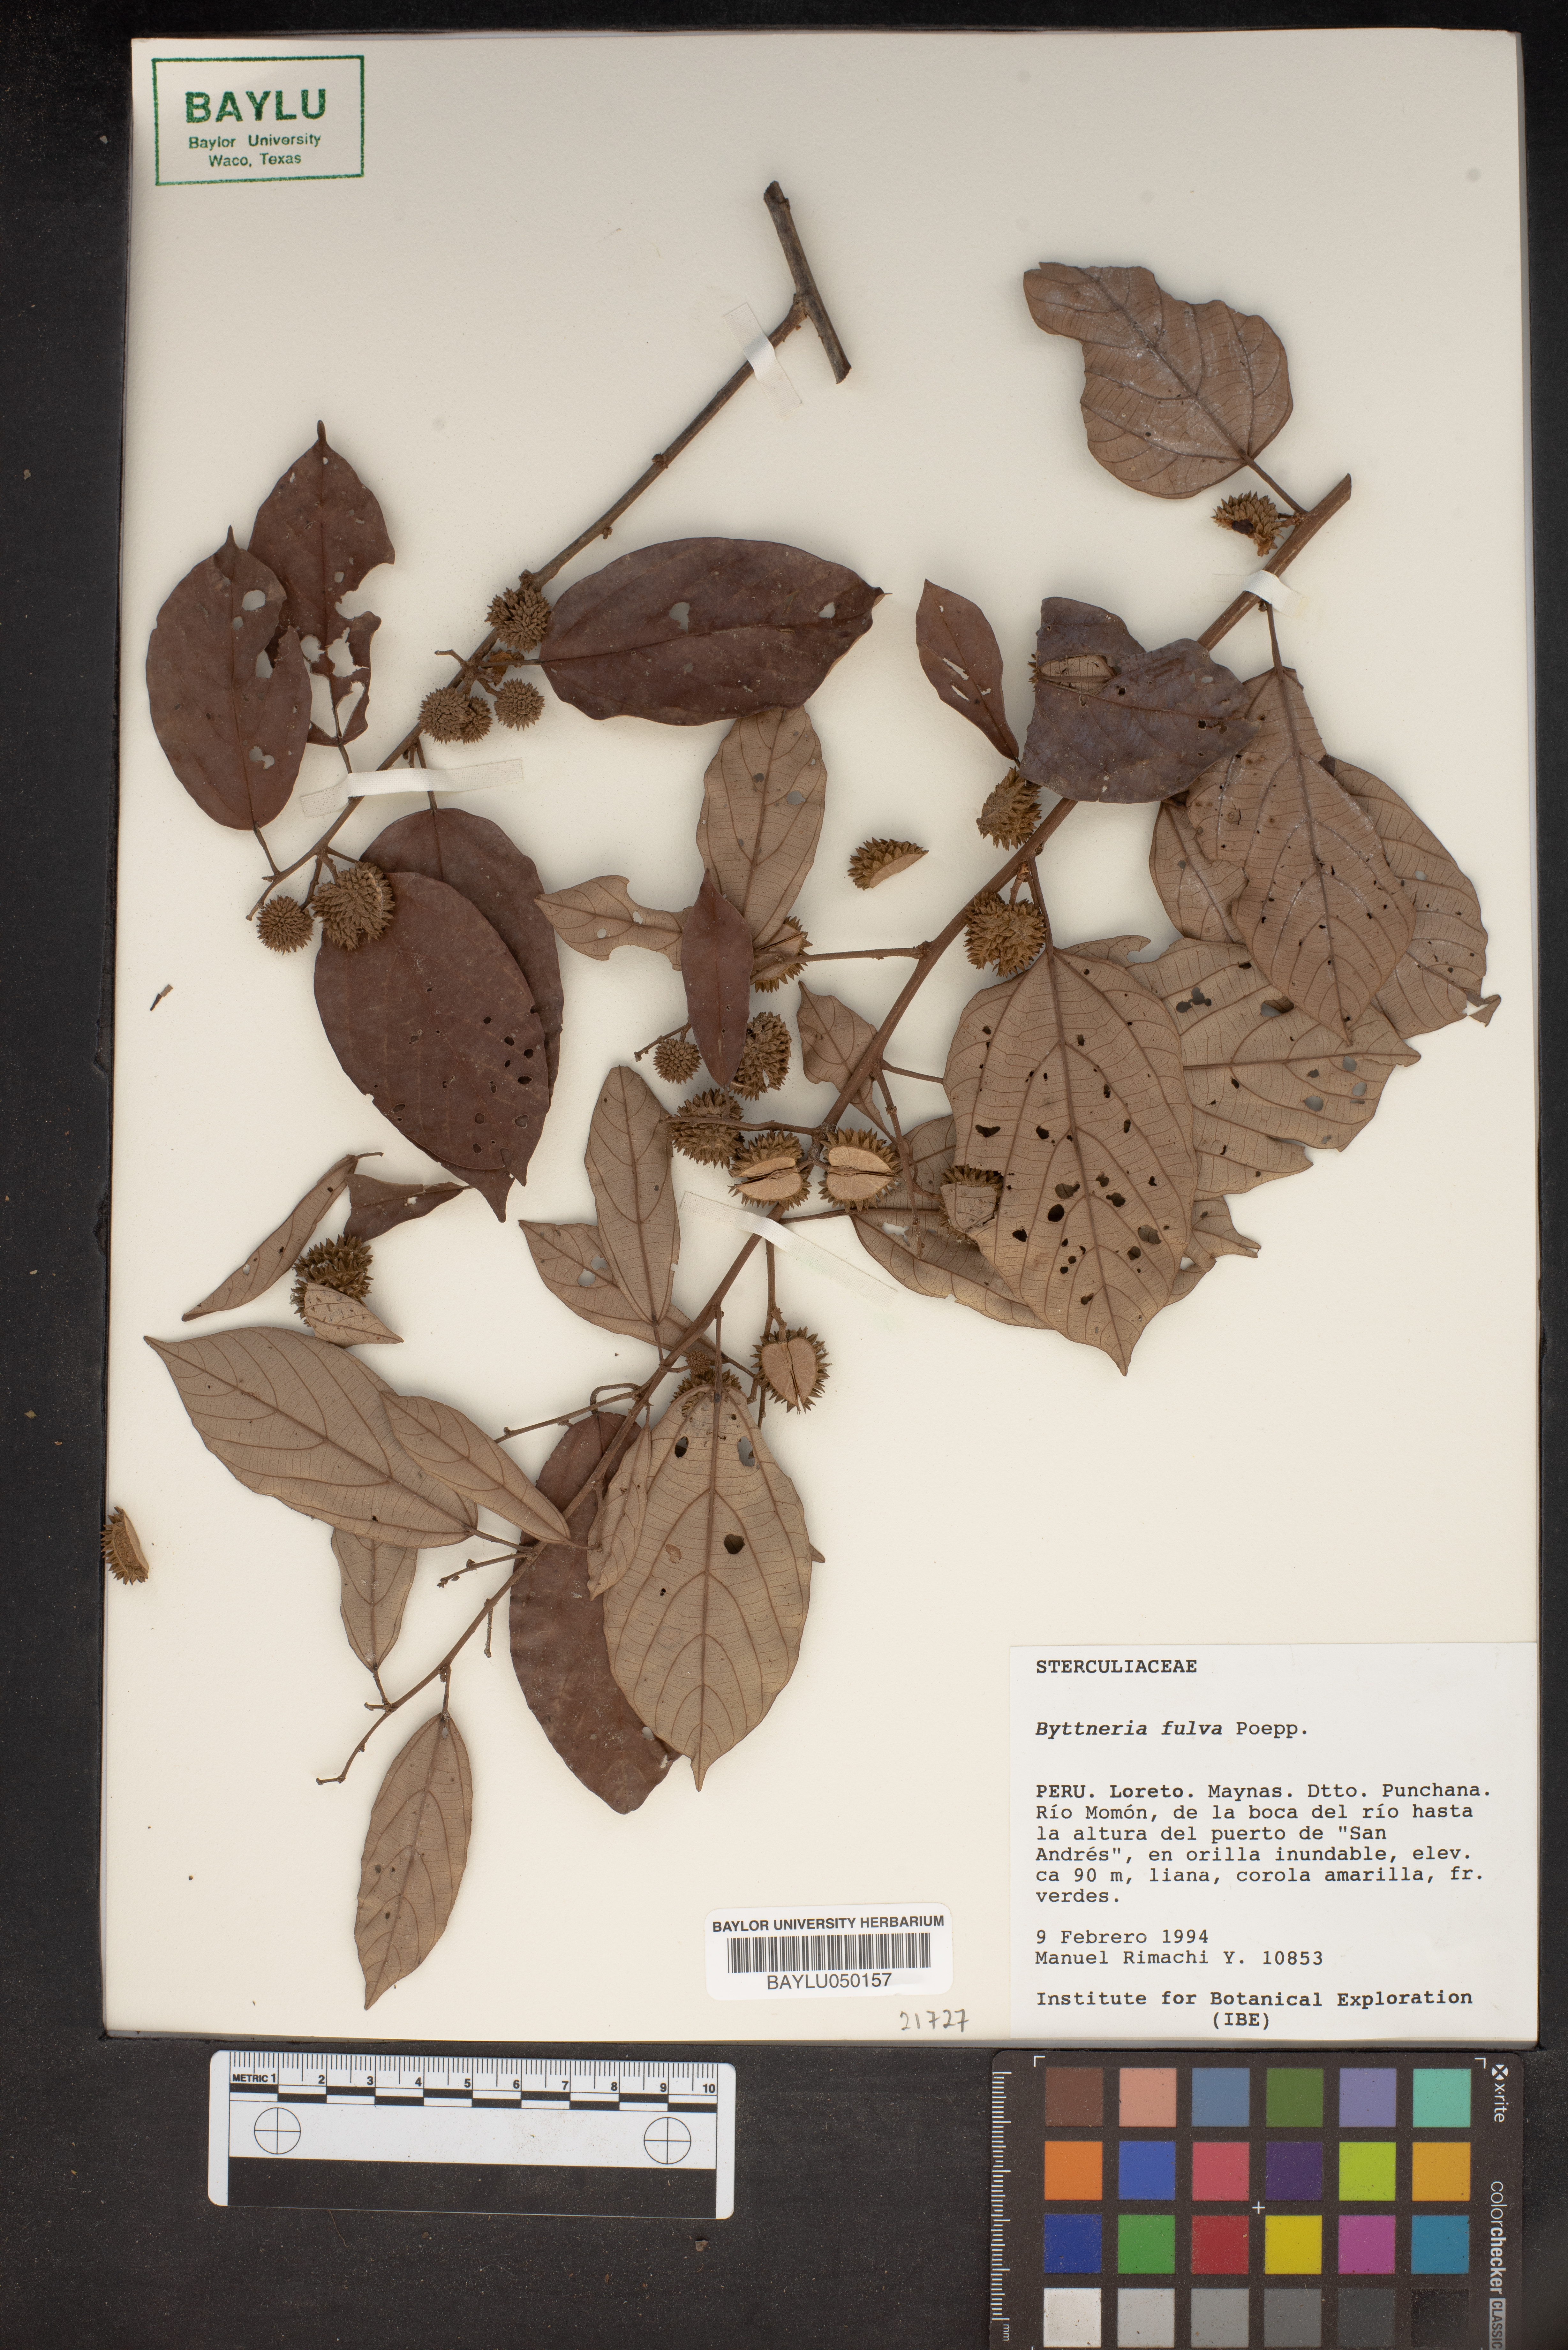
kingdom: Plantae
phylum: Tracheophyta
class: Magnoliopsida
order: Malvales
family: Malvaceae
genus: Byttneria
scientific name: Byttneria fulva
